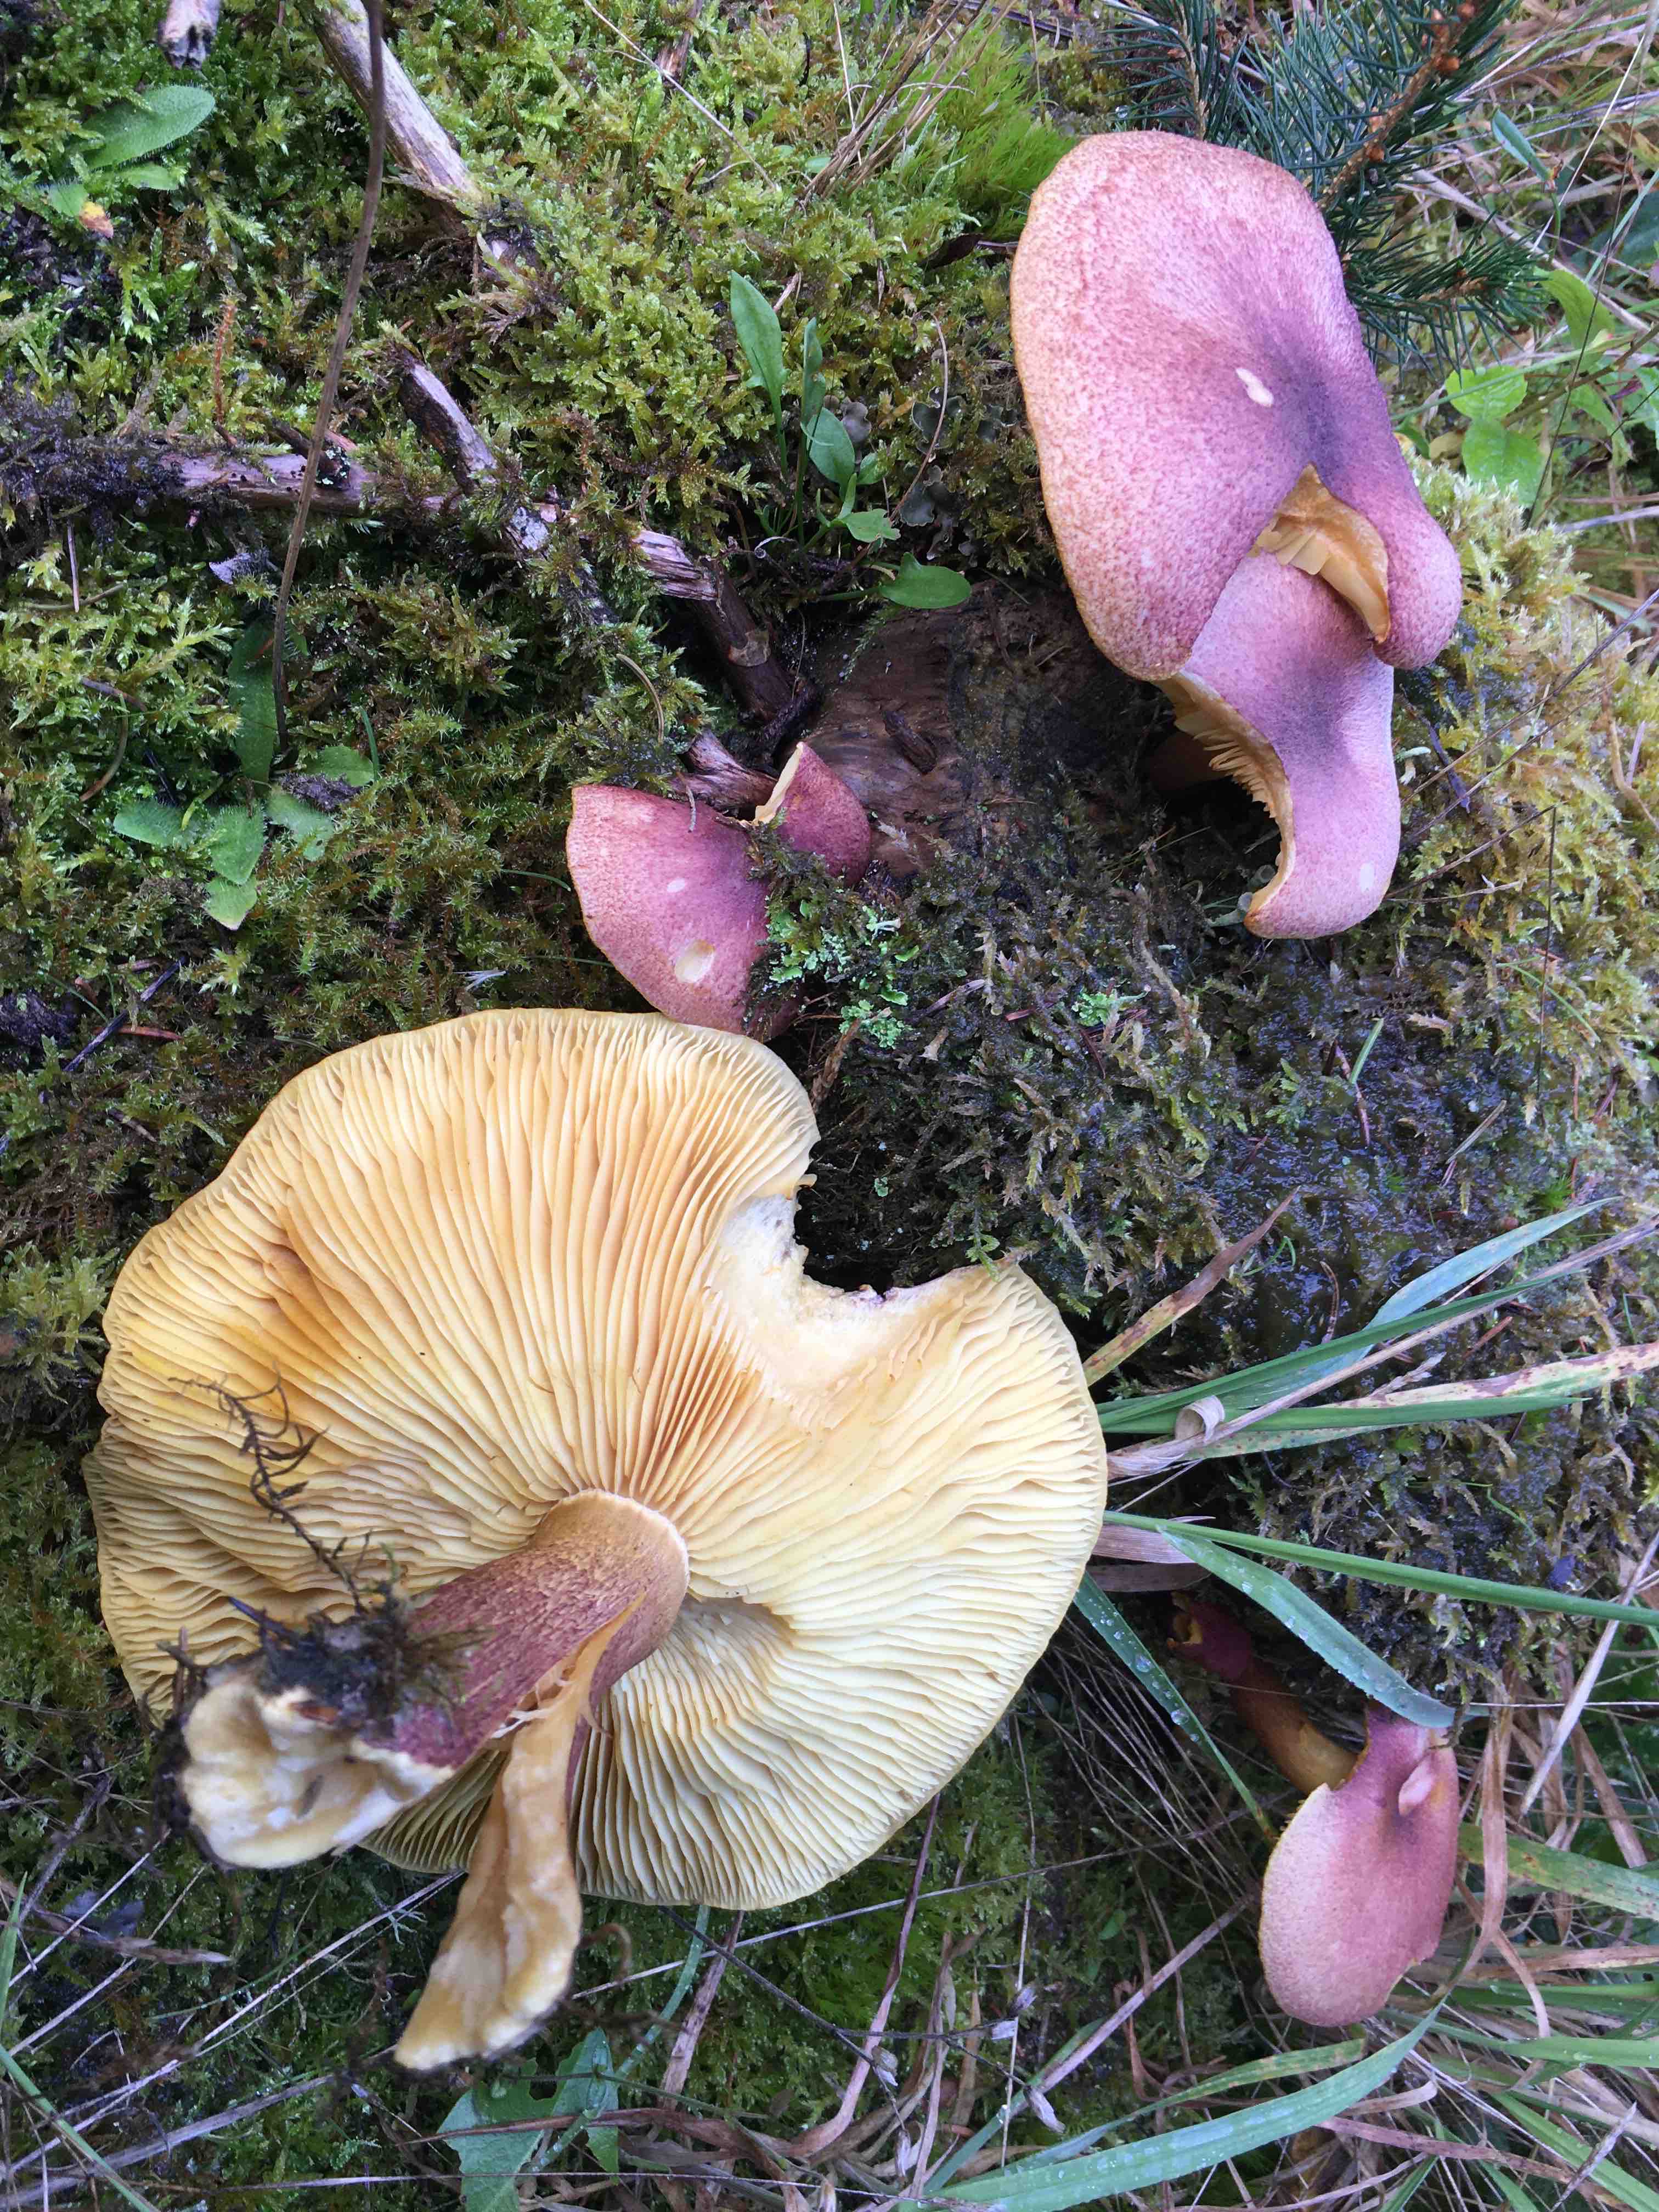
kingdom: Fungi
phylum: Basidiomycota
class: Agaricomycetes
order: Agaricales
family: Tricholomataceae
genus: Tricholomopsis
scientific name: Tricholomopsis rutilans
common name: purpur-væbnerhat
